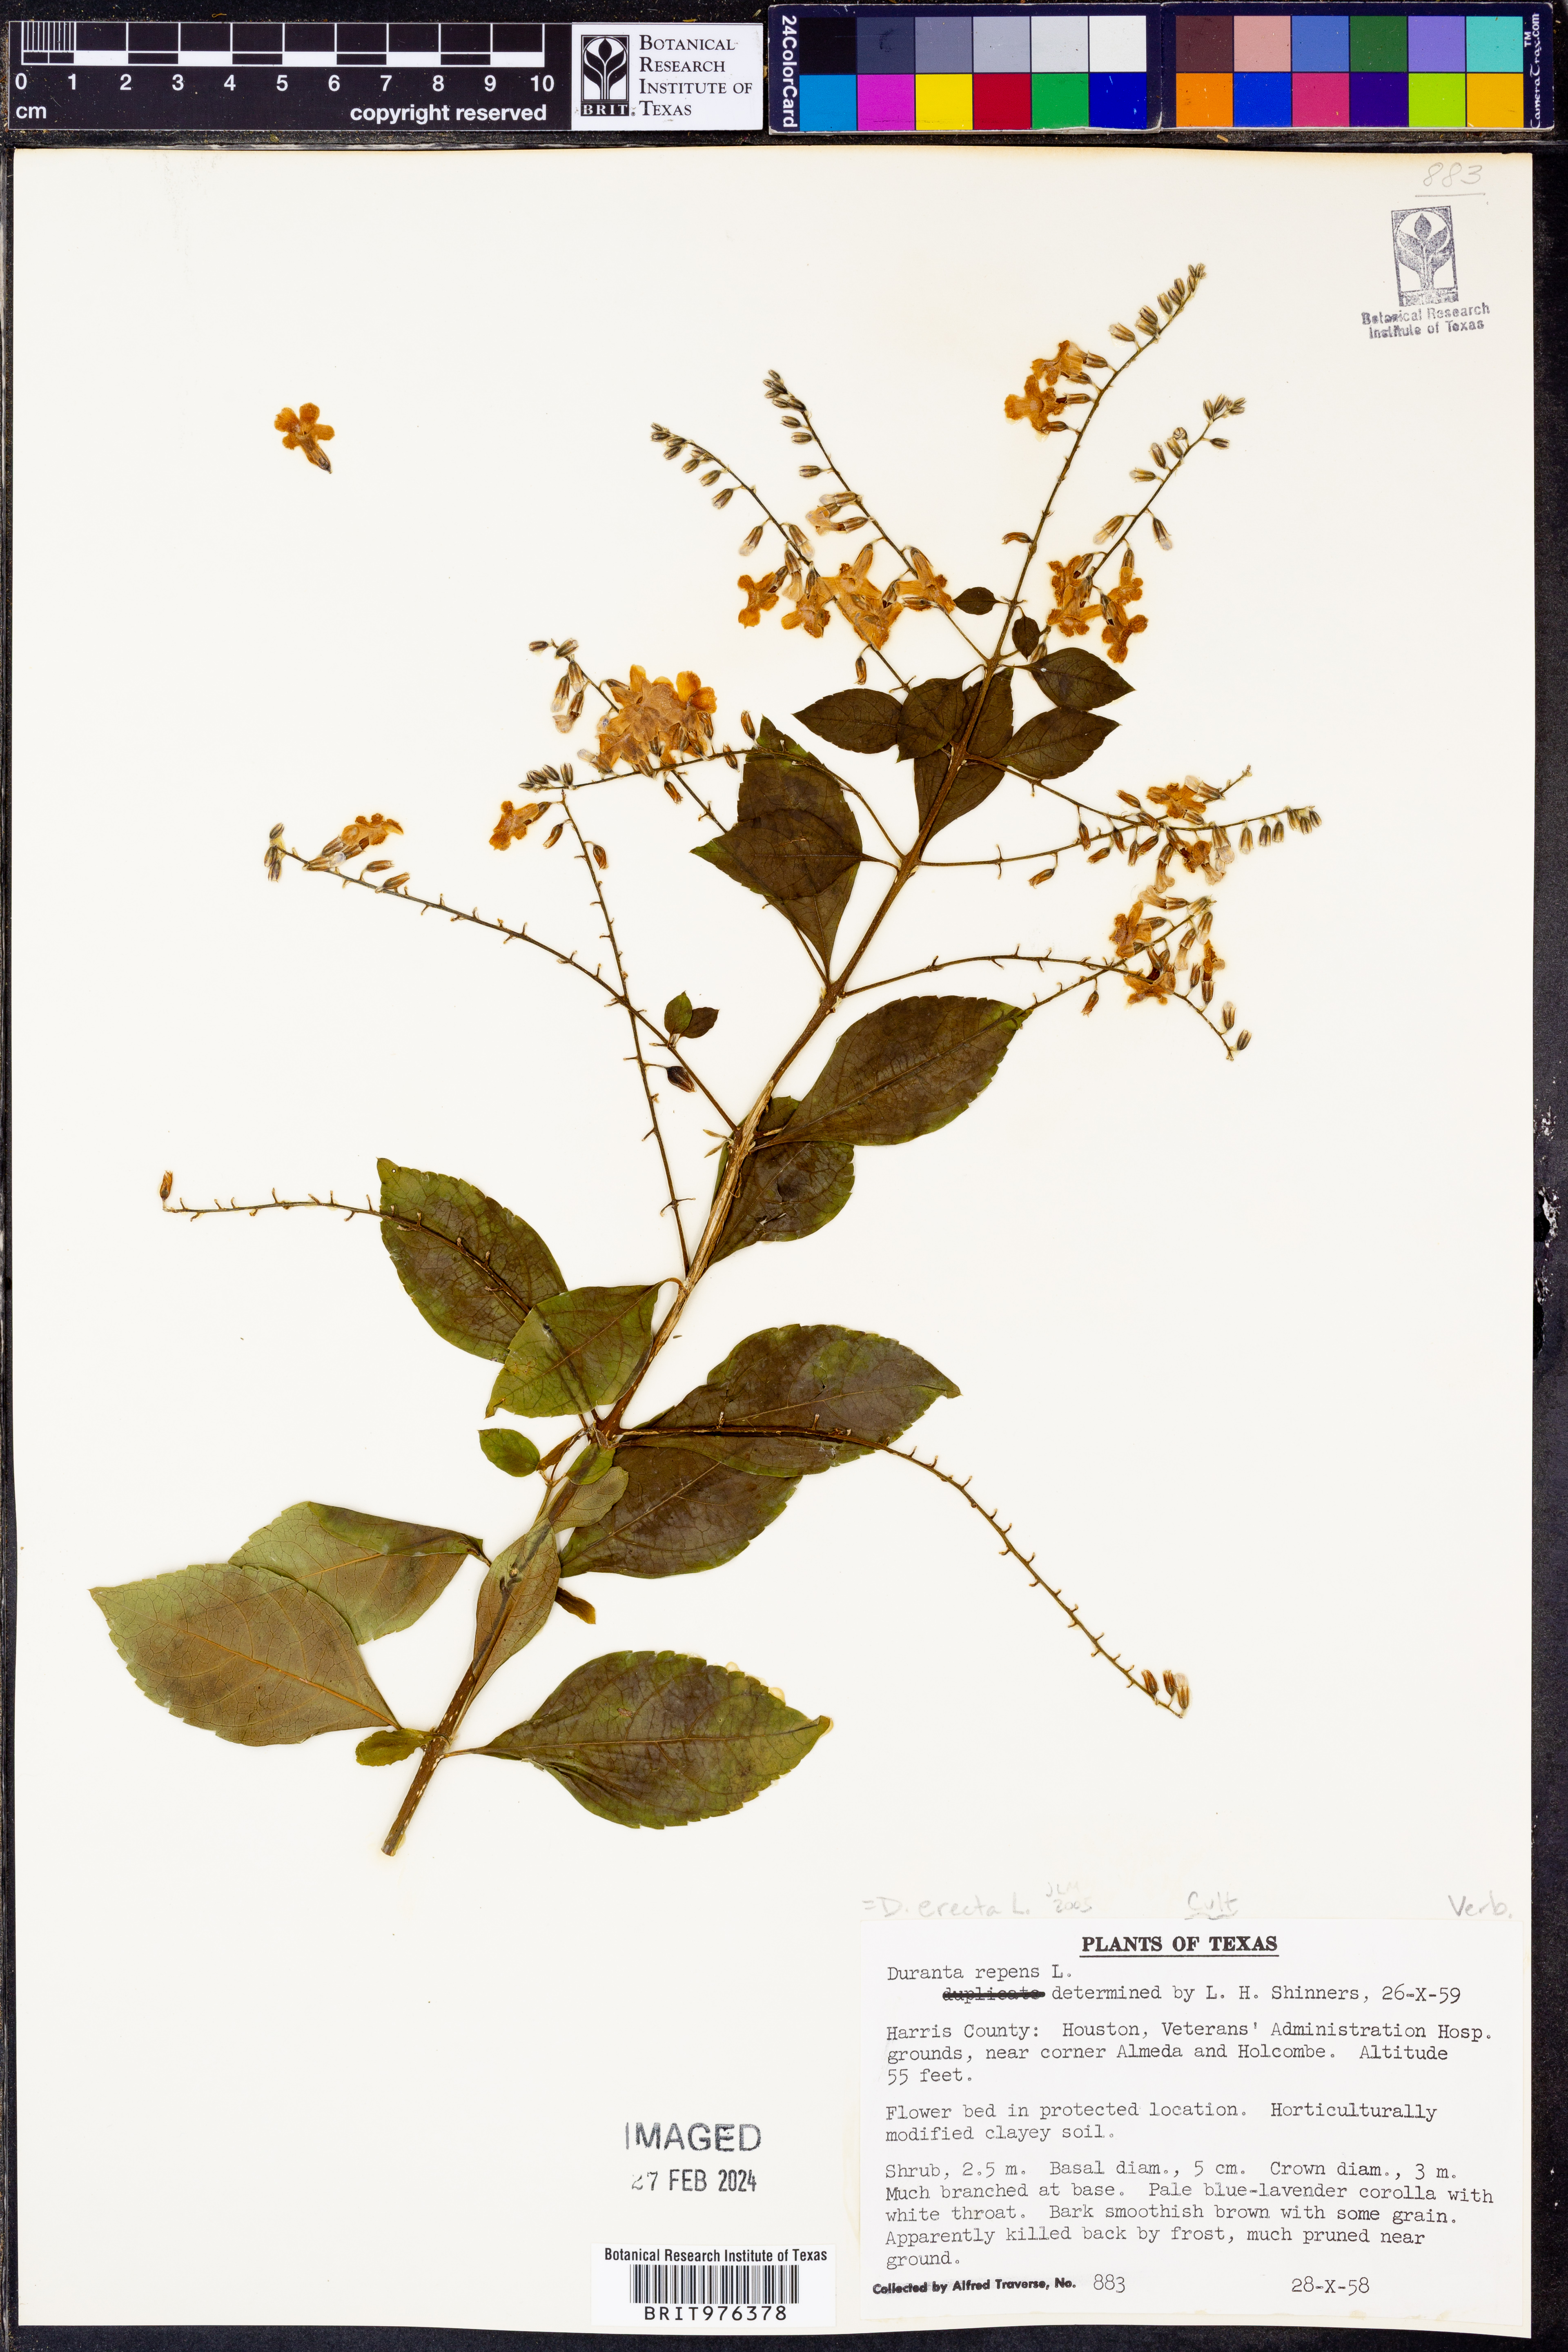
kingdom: Plantae
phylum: Tracheophyta
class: Magnoliopsida
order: Lamiales
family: Verbenaceae
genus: Duranta
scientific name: Duranta
